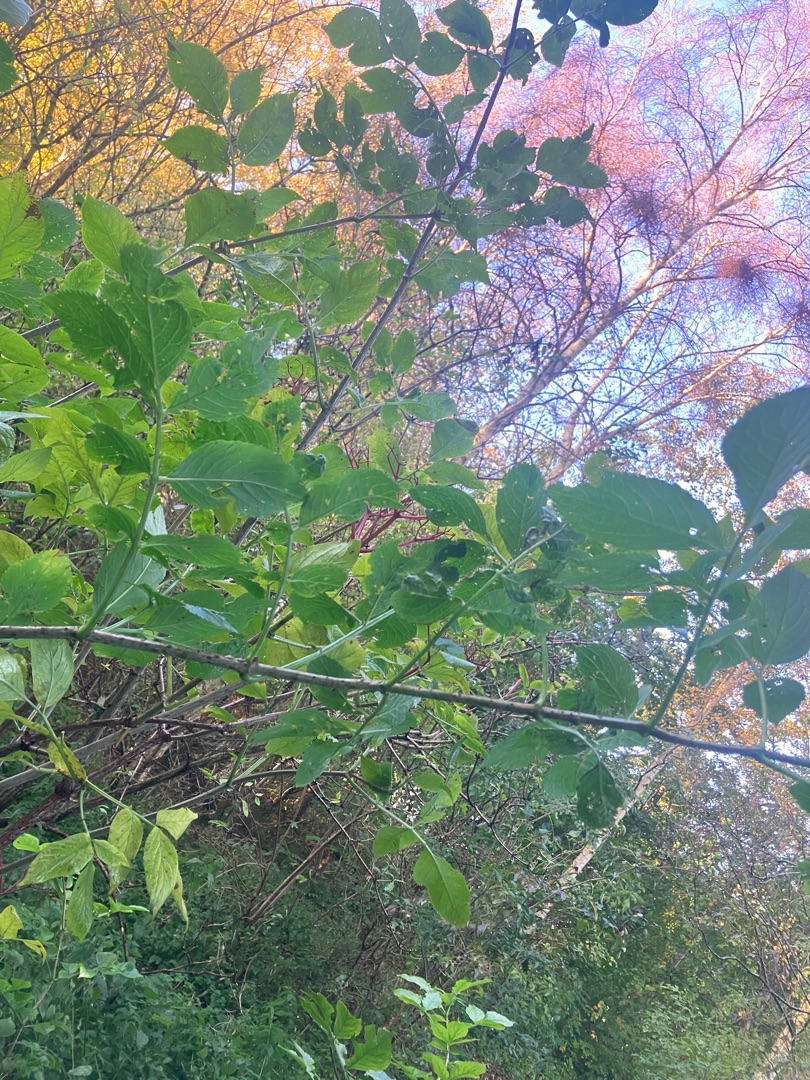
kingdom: Plantae
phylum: Tracheophyta
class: Magnoliopsida
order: Dipsacales
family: Viburnaceae
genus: Sambucus
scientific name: Sambucus nigra
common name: Almindelig hyld
